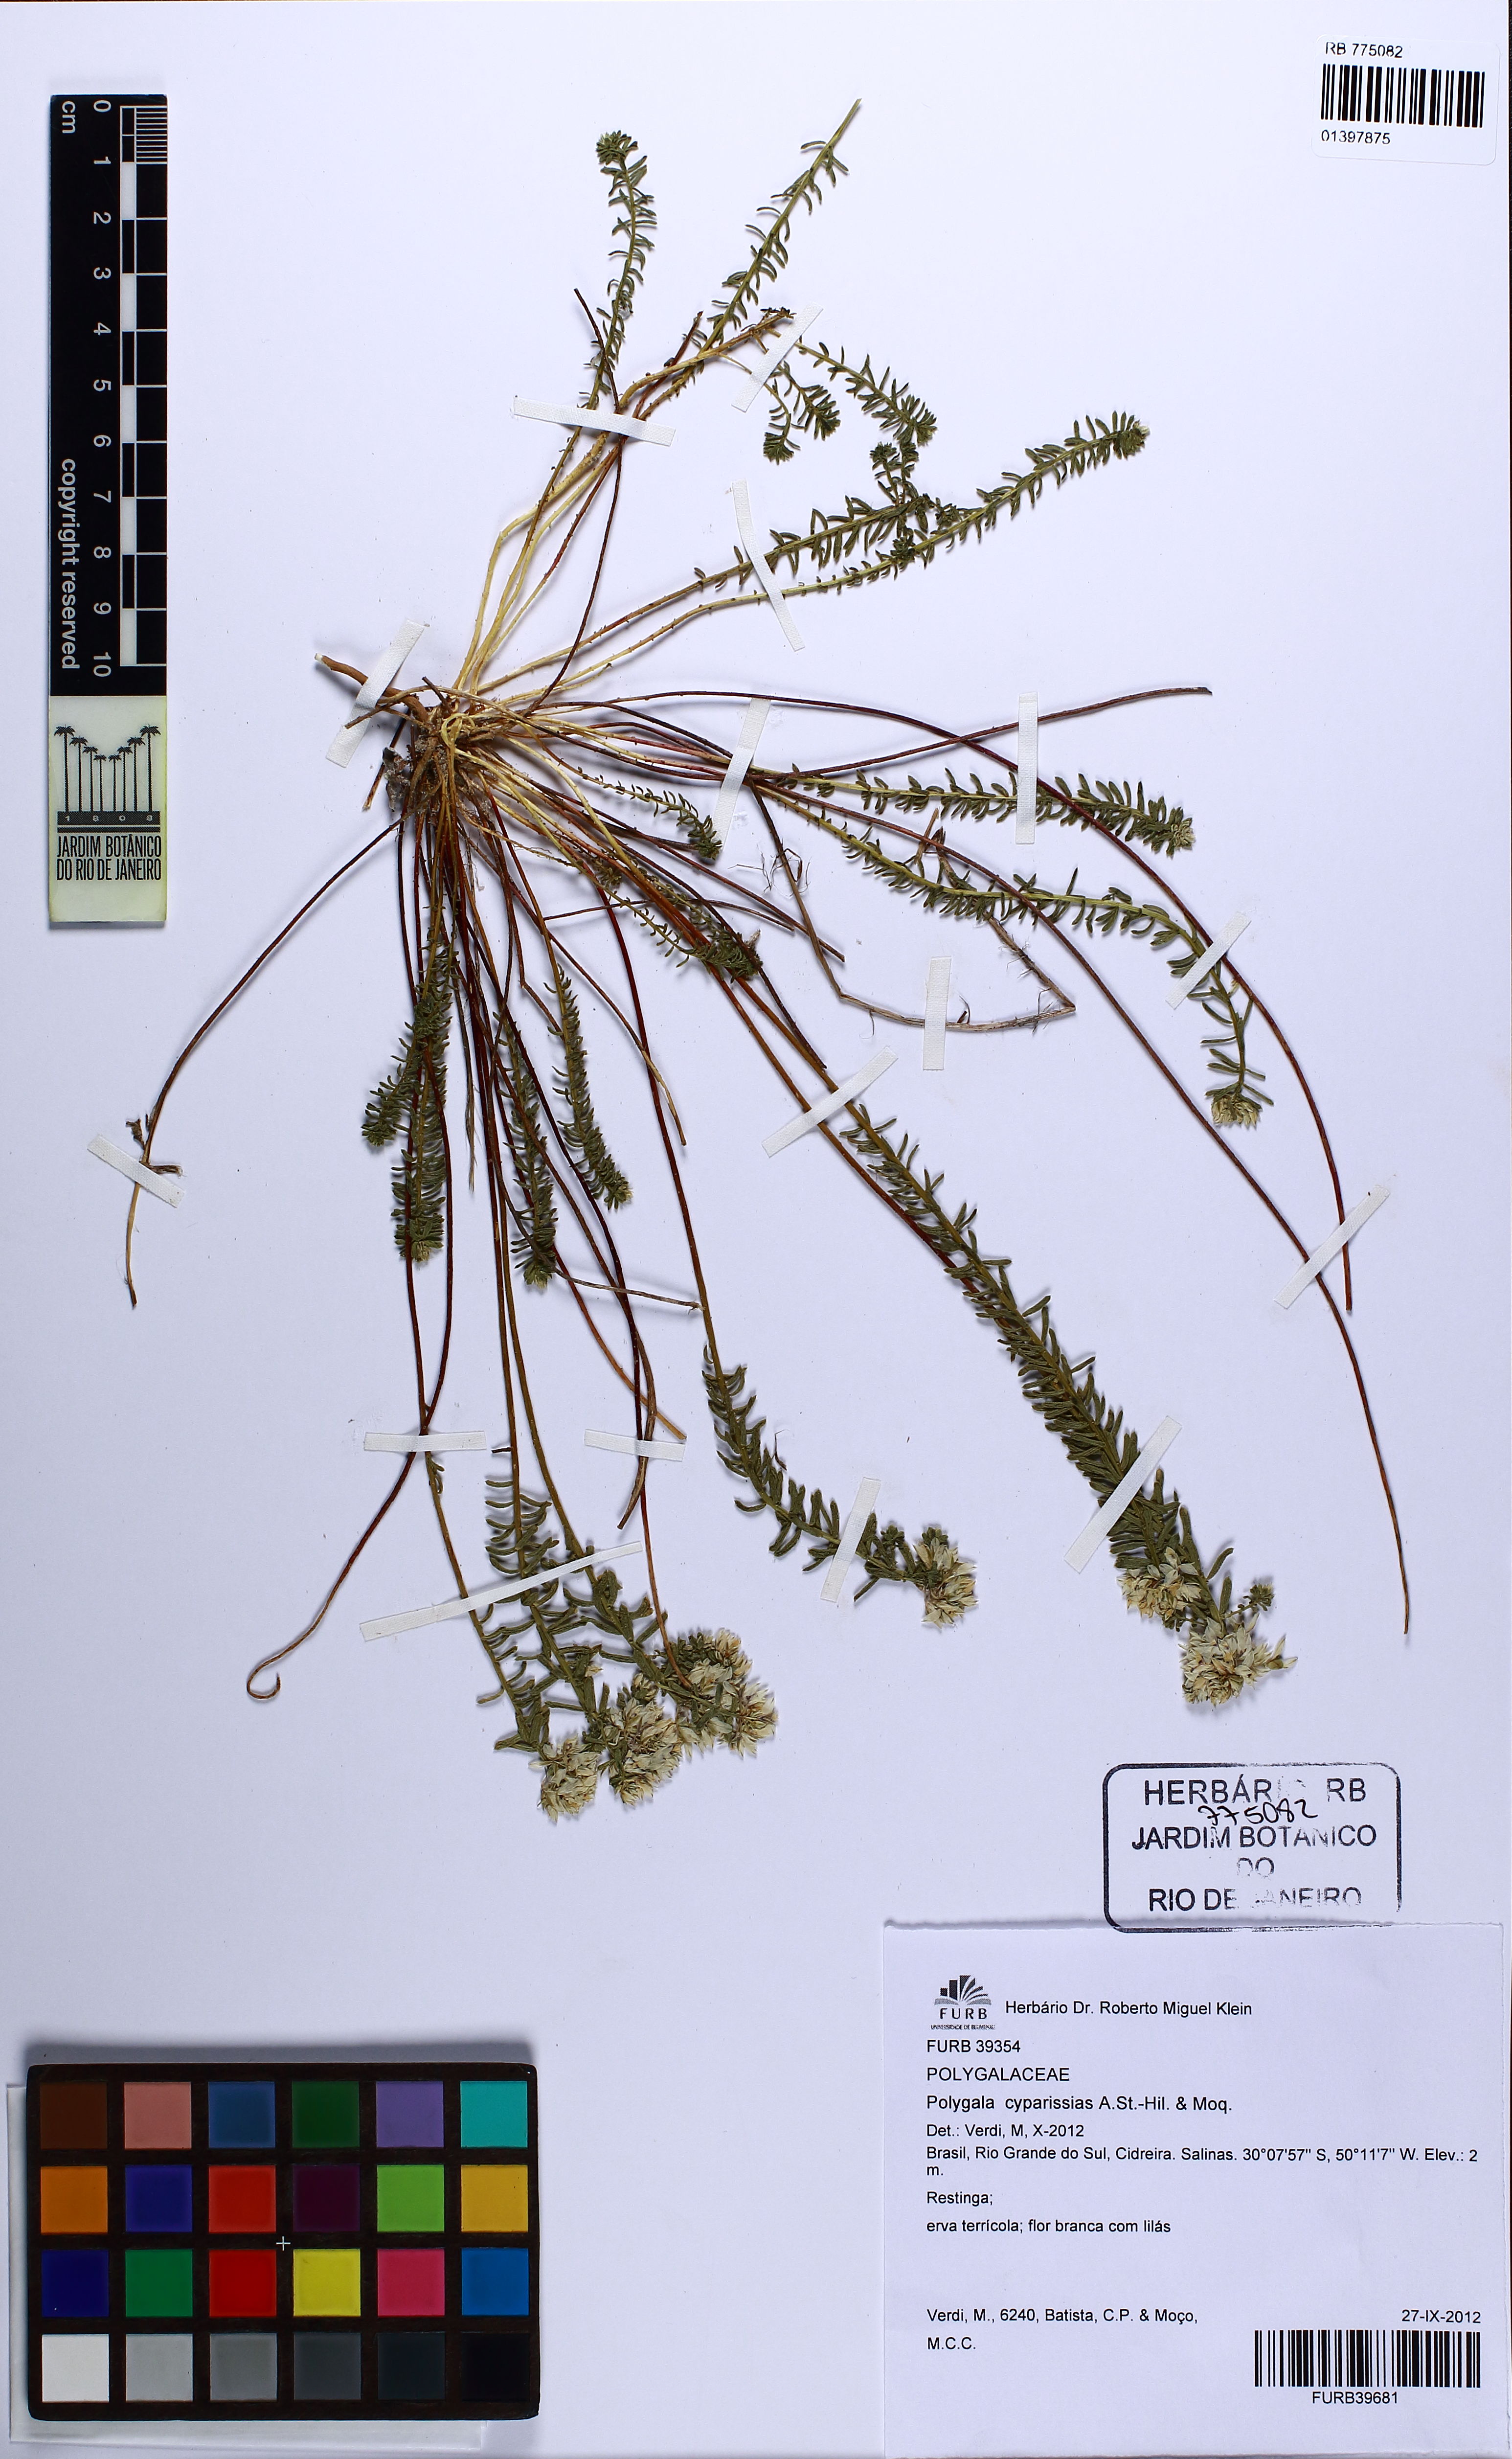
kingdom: Plantae
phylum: Tracheophyta
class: Magnoliopsida
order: Fabales
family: Polygalaceae
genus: Polygala
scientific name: Polygala cyparissias
